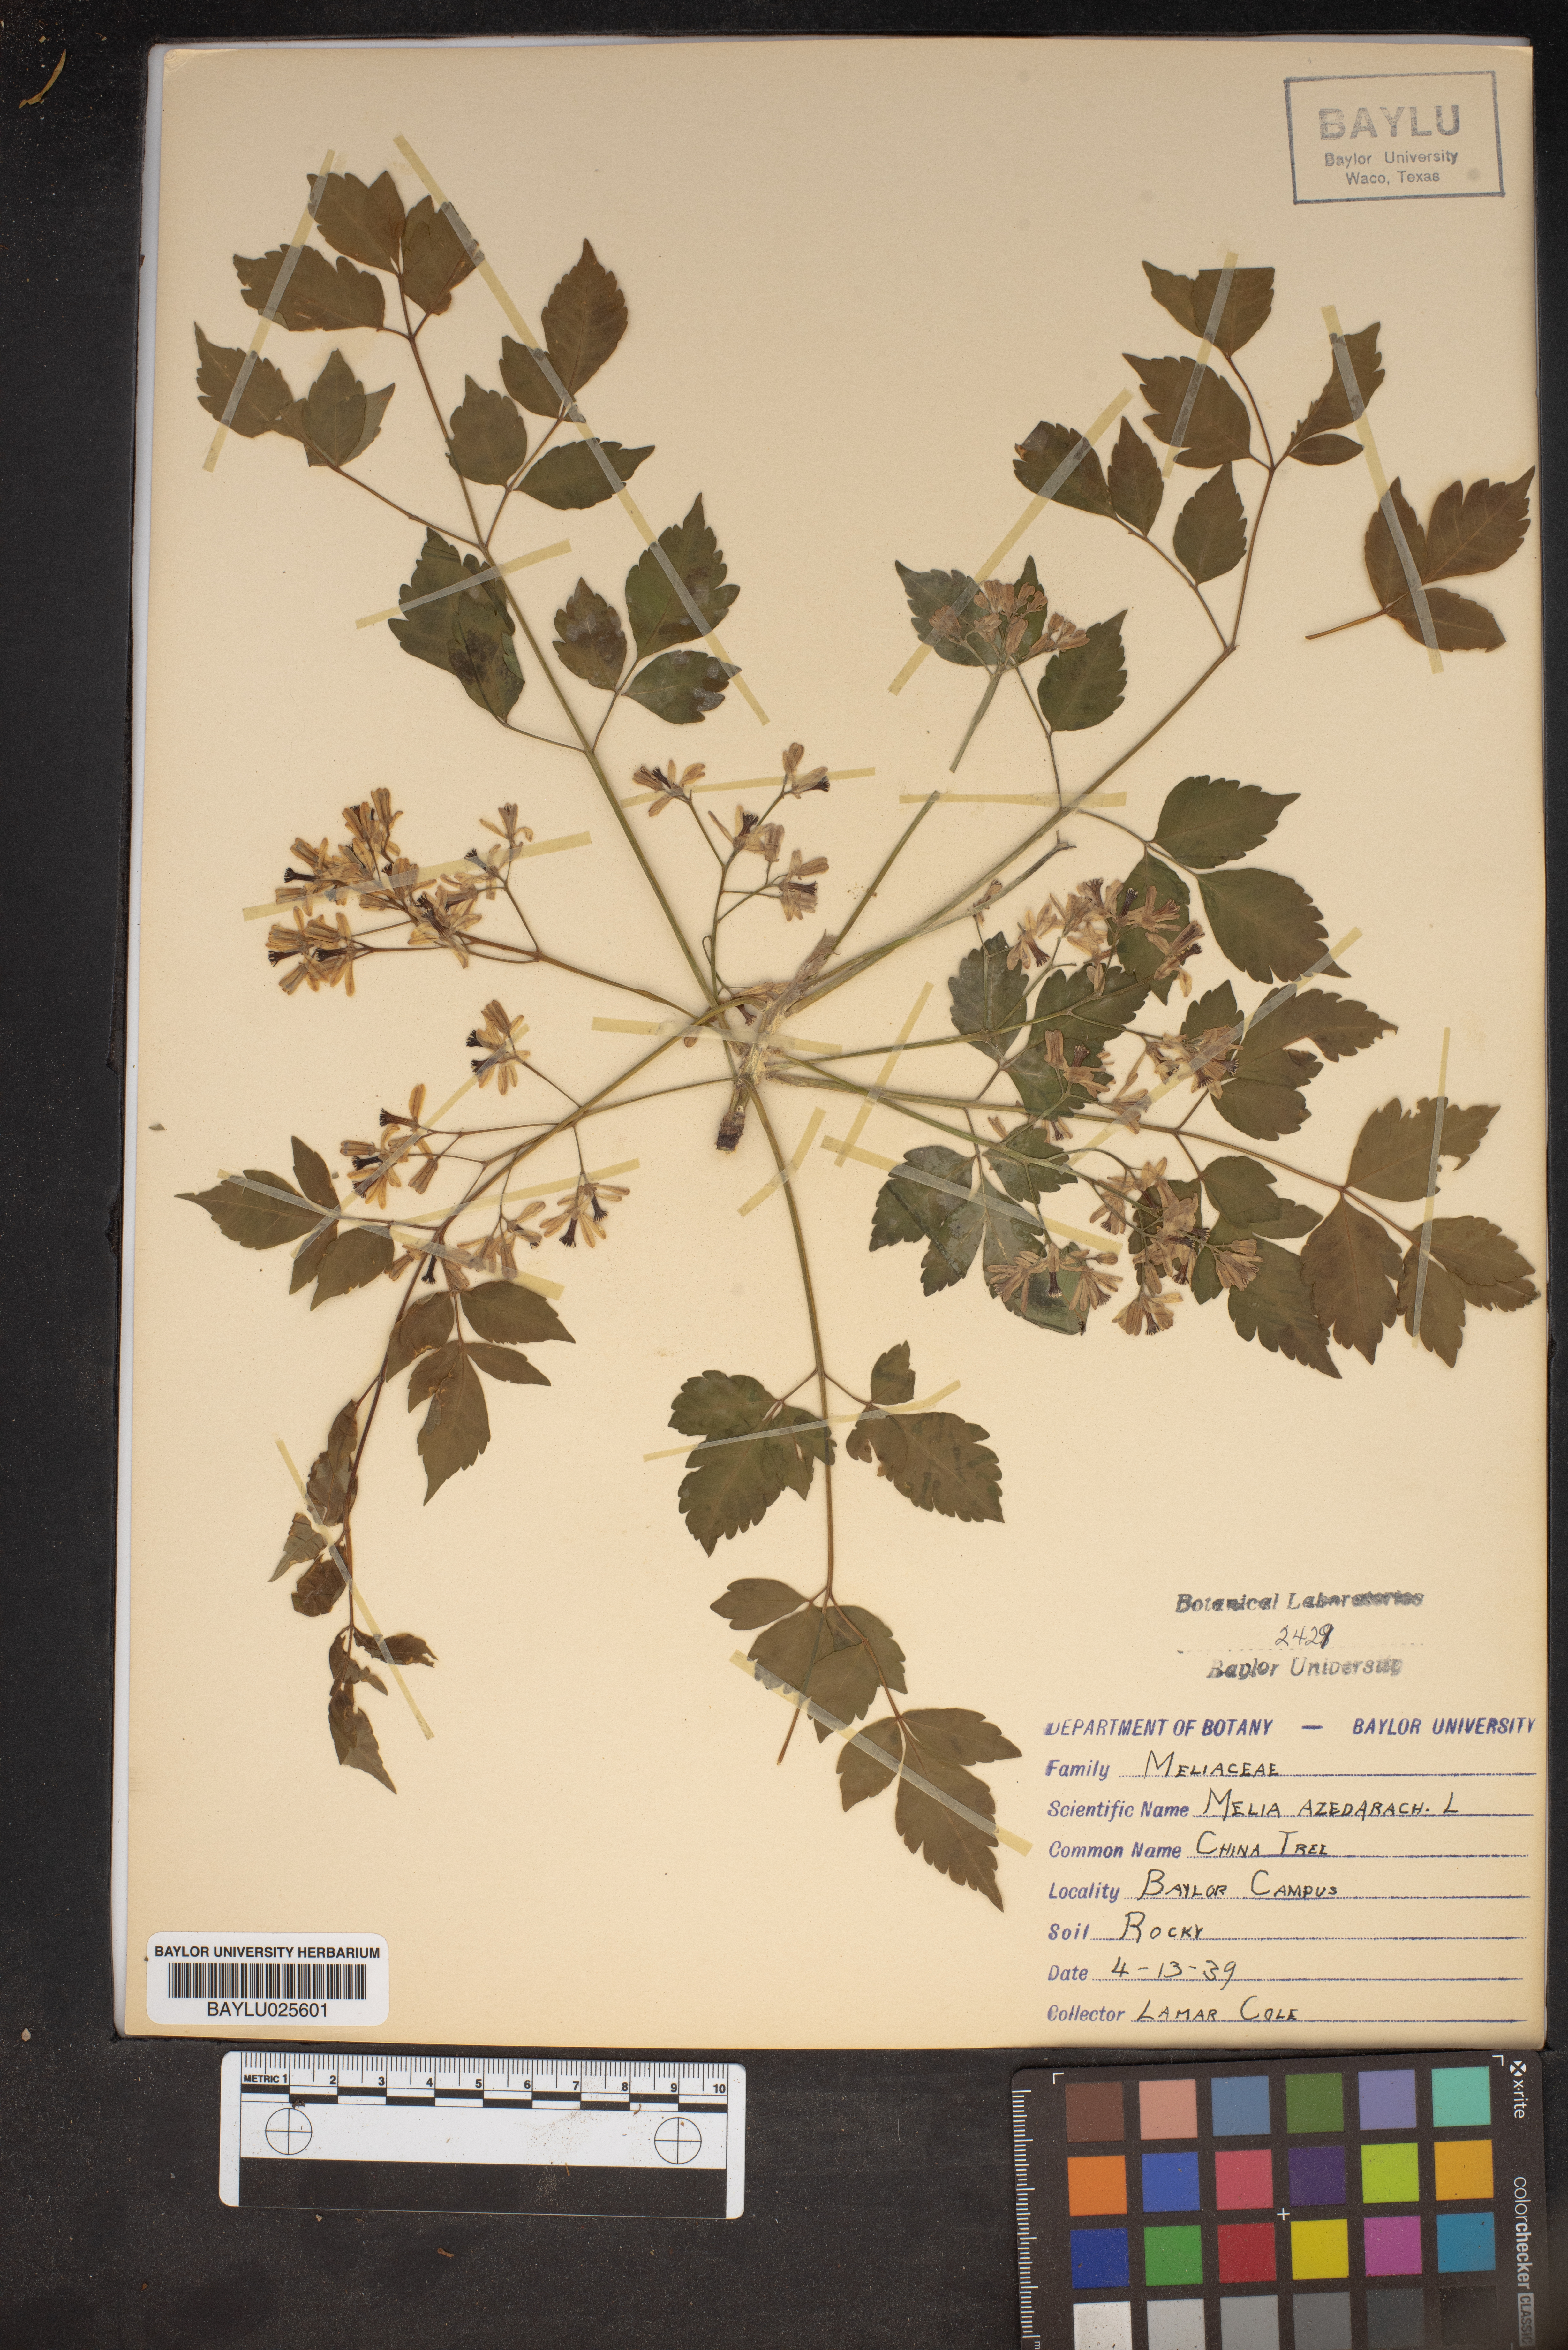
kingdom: Plantae
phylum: Tracheophyta
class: Magnoliopsida
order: Sapindales
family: Meliaceae
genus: Melia
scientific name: Melia azedarach
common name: Chinaberrytree
